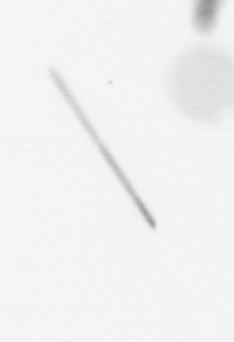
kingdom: Chromista
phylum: Ochrophyta
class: Bacillariophyceae
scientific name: Bacillariophyceae
